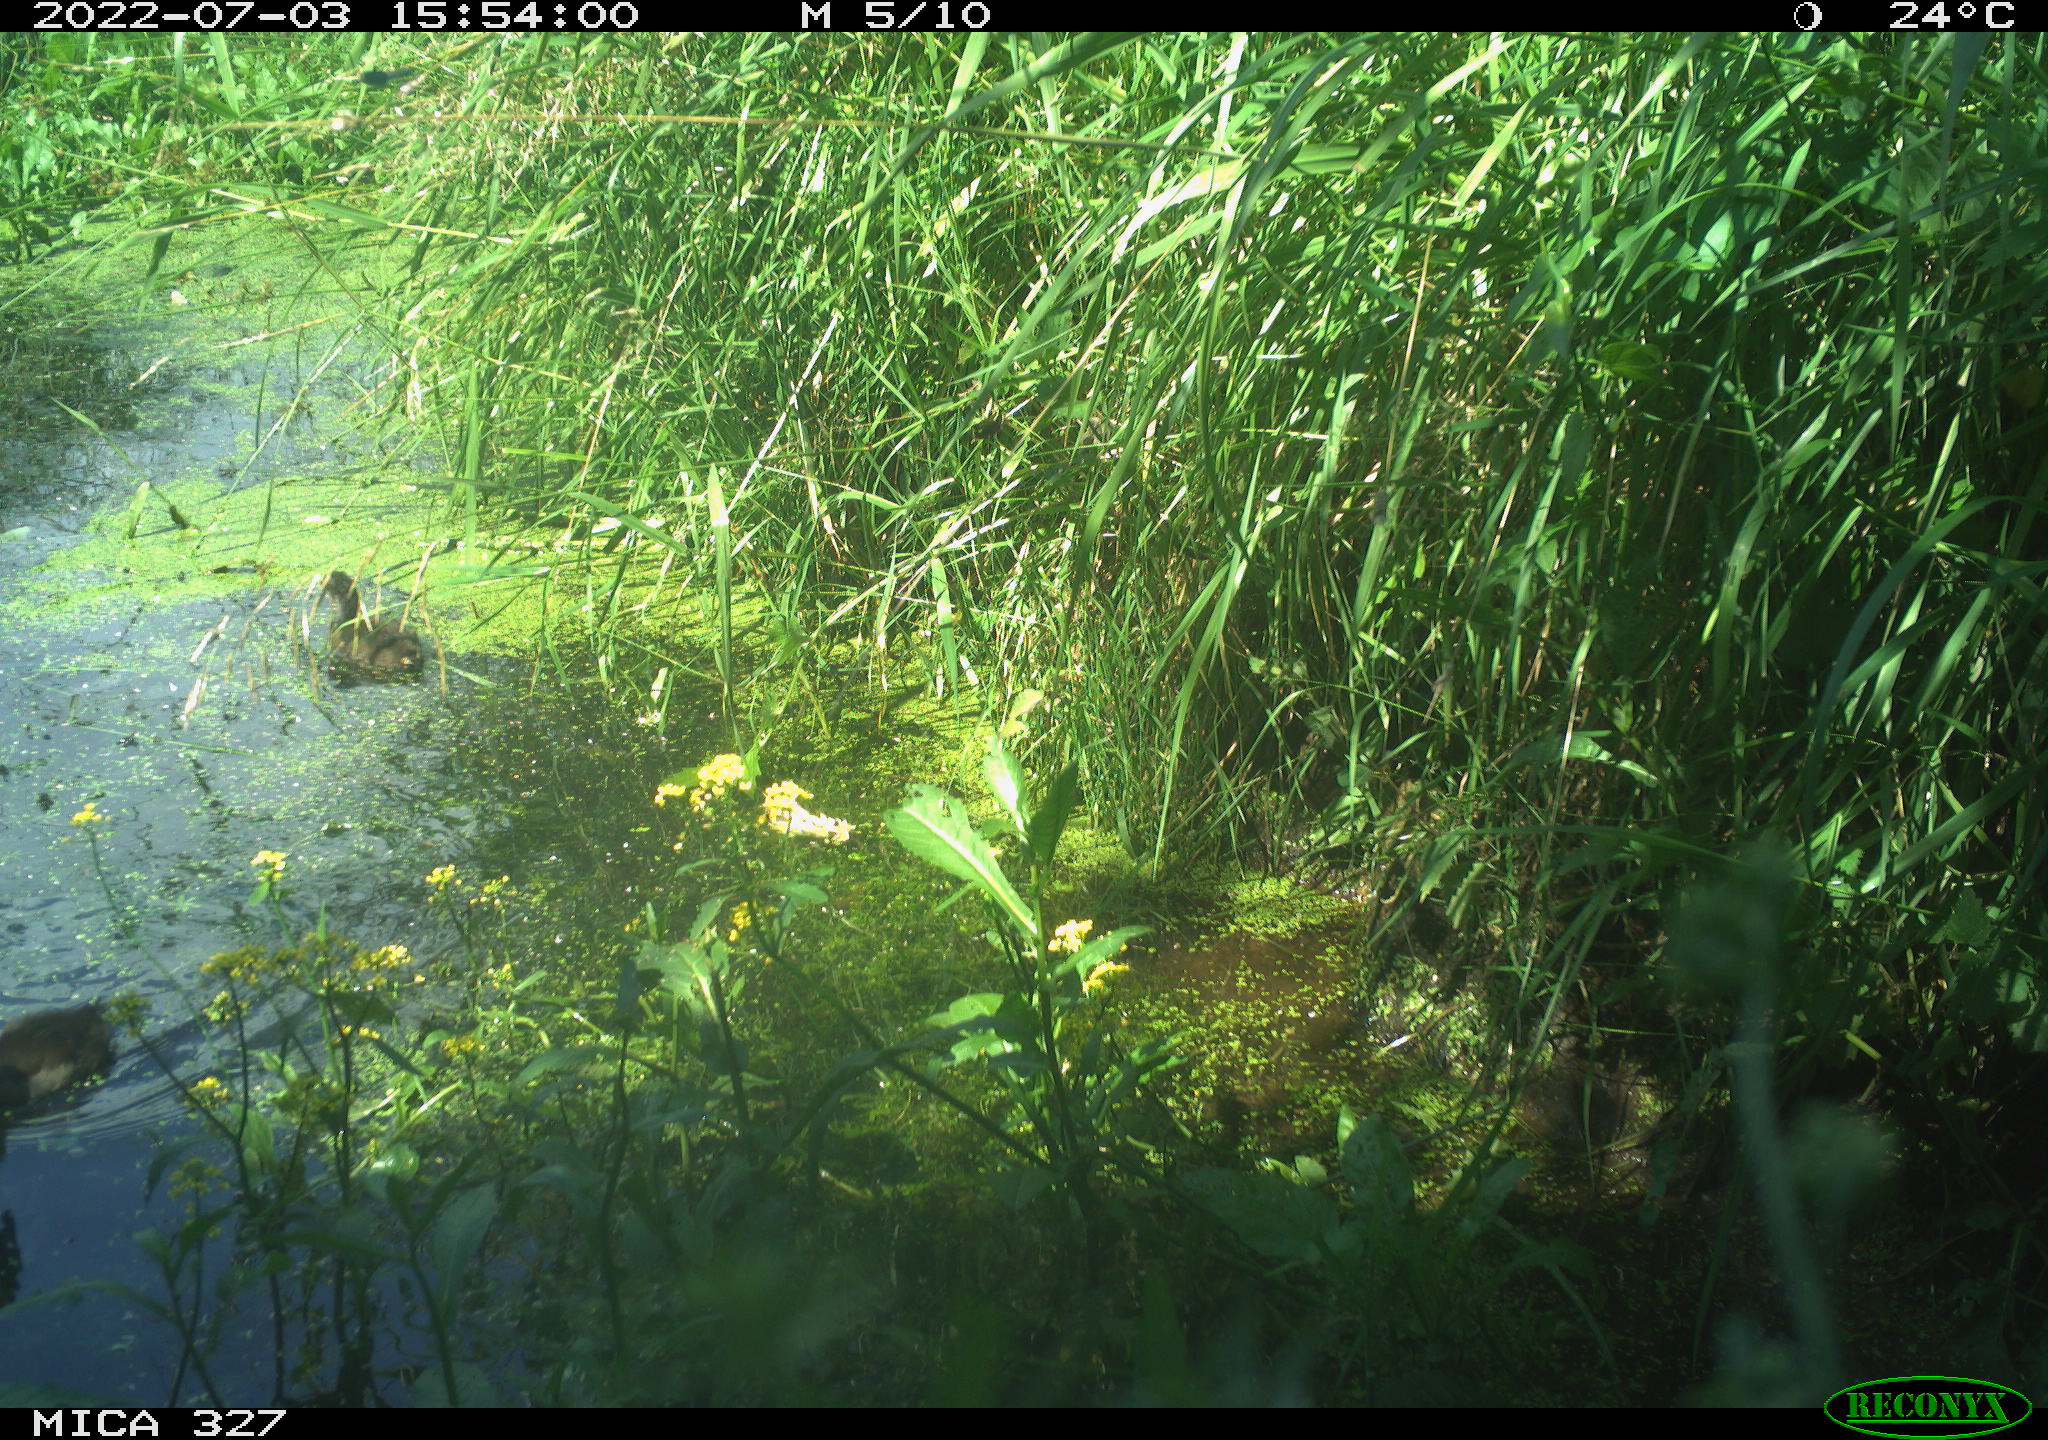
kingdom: Animalia
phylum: Chordata
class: Aves
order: Gruiformes
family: Rallidae
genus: Gallinula
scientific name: Gallinula chloropus
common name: Common moorhen
